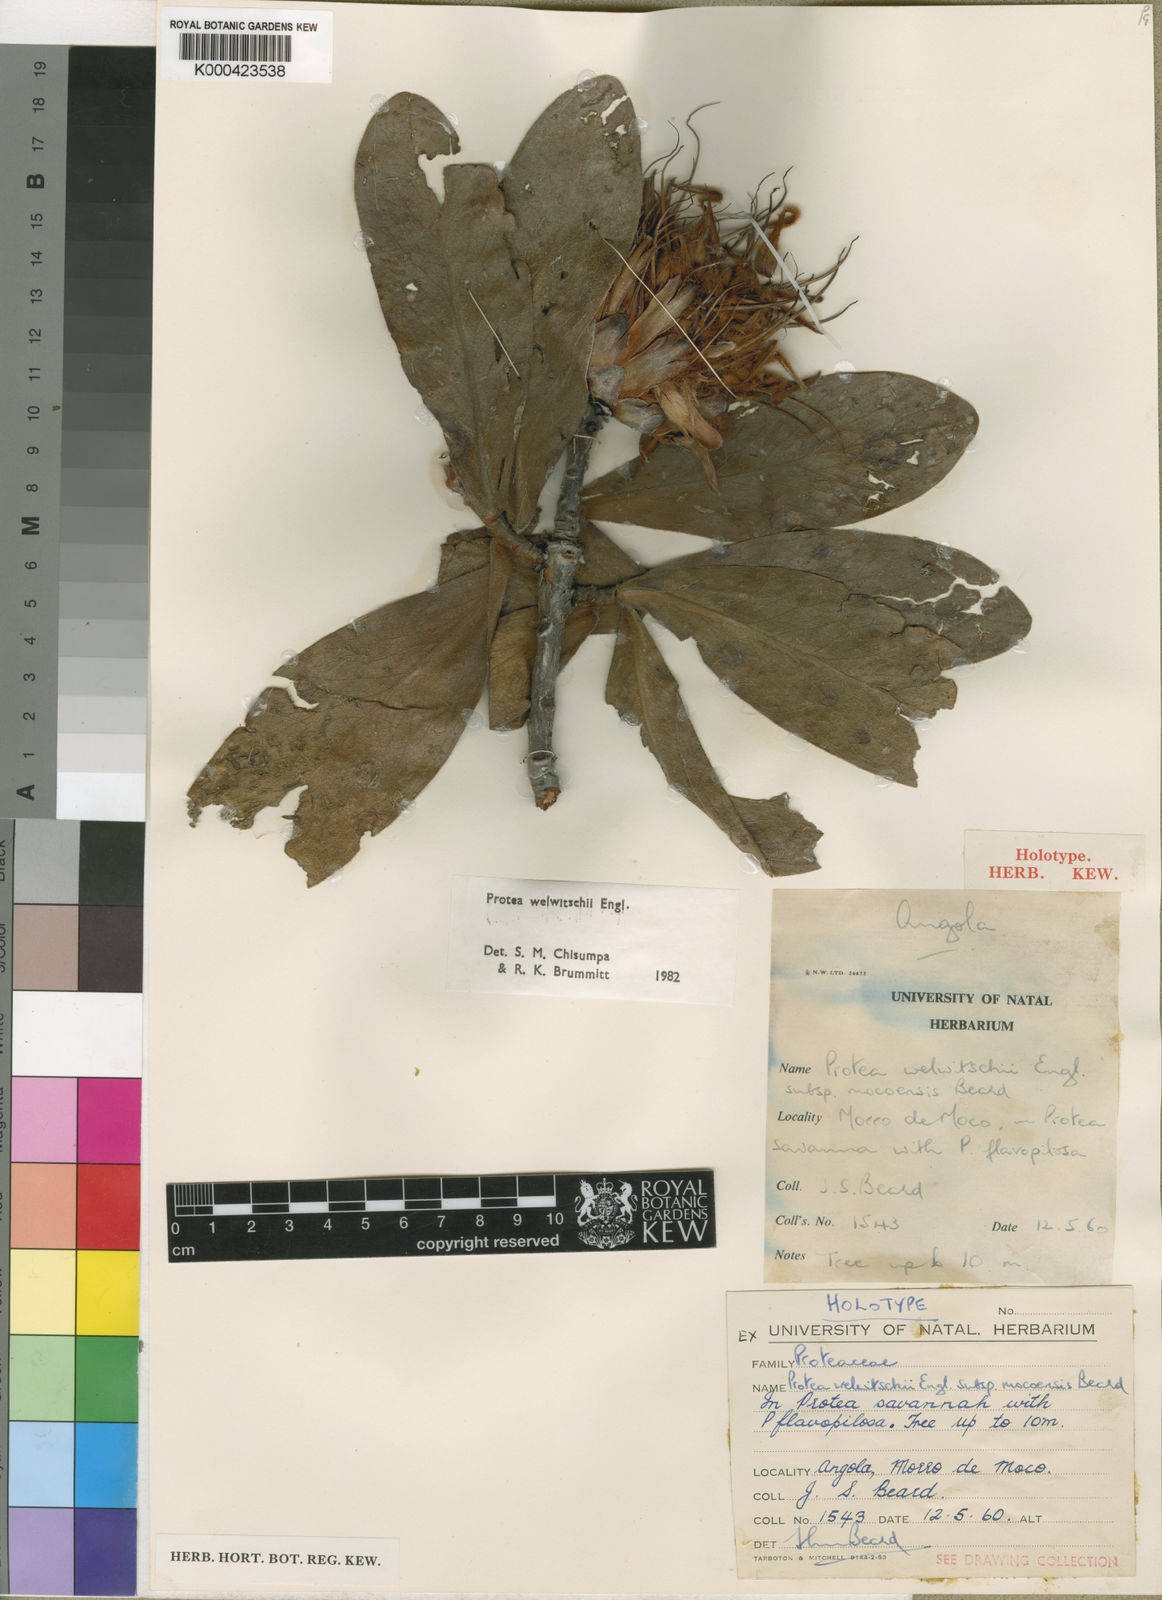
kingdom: Plantae
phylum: Tracheophyta
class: Magnoliopsida
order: Proteales
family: Proteaceae
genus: Protea
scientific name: Protea welwitschii
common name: Cluster-head protea
